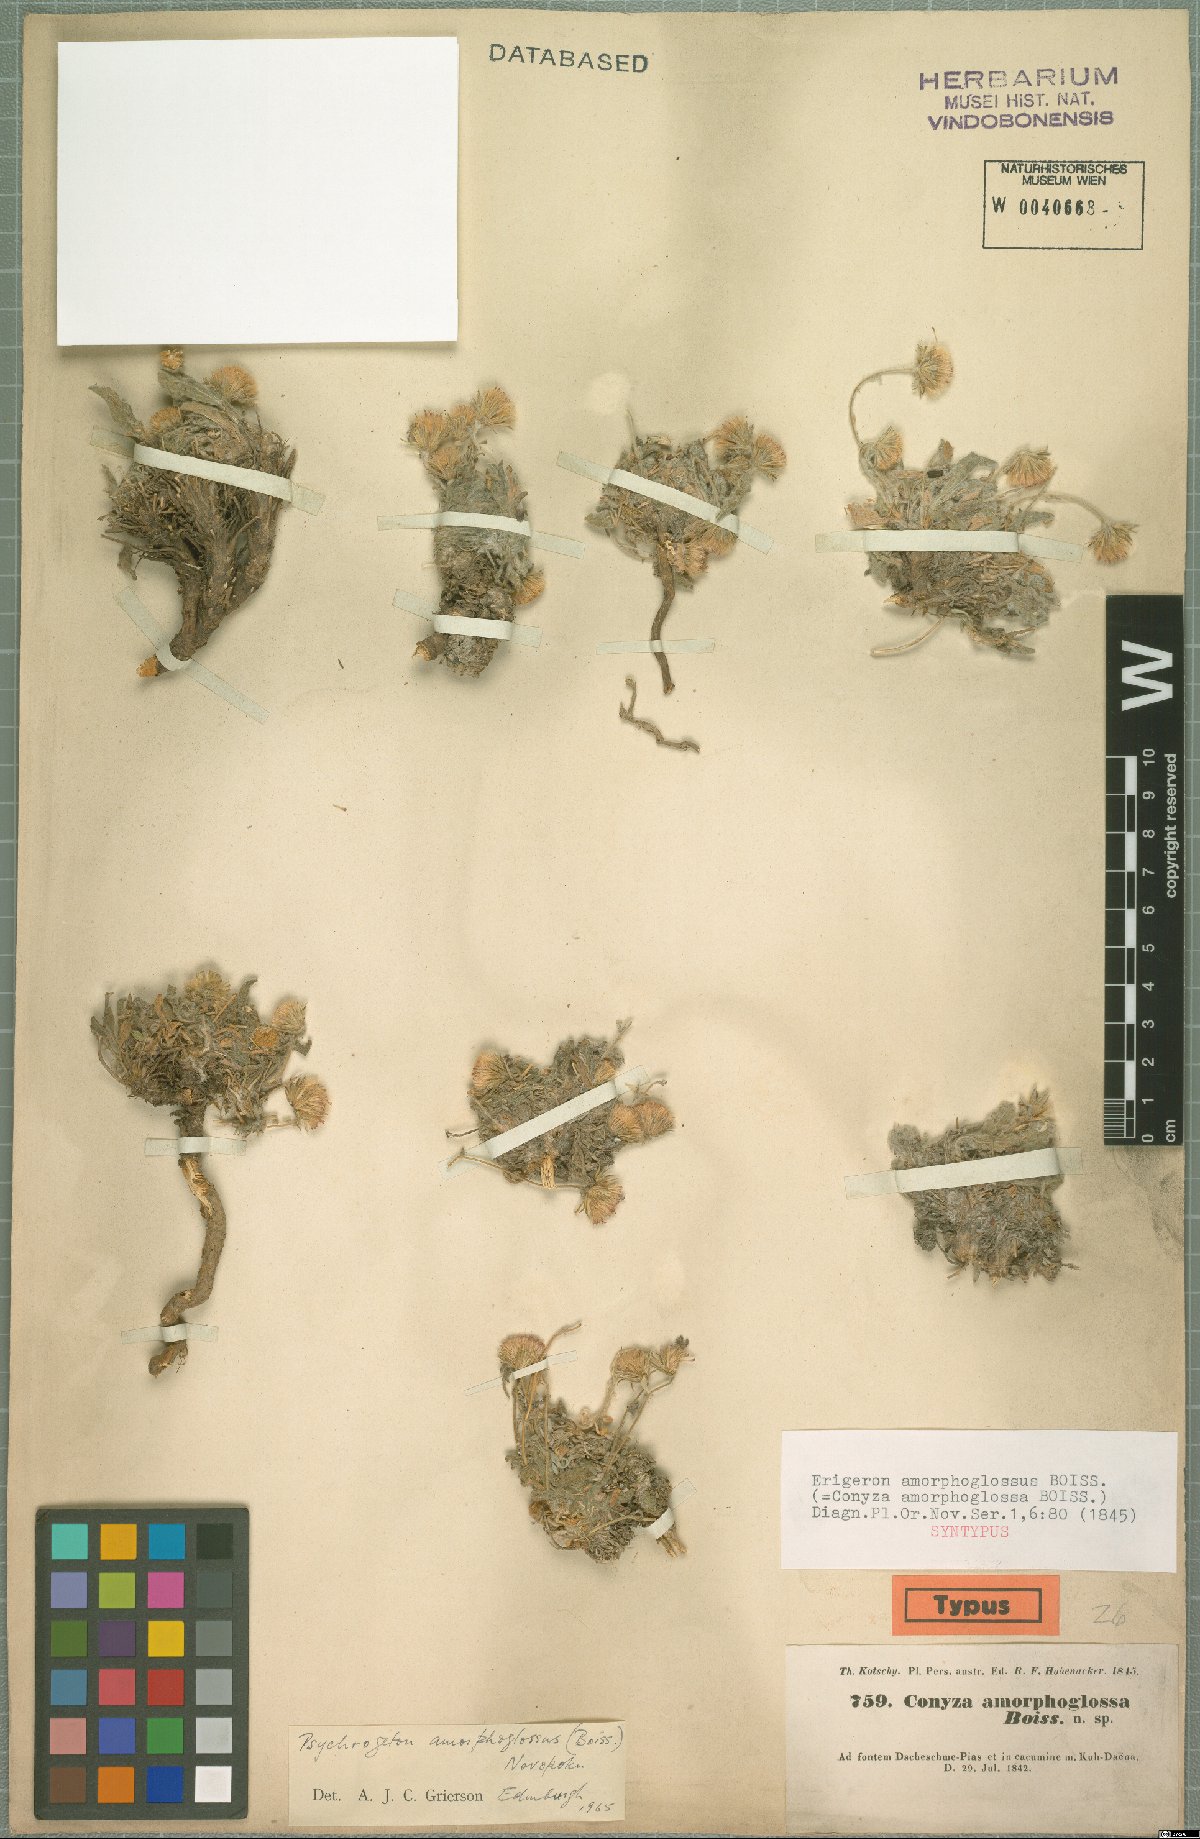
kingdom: Plantae
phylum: Tracheophyta
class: Magnoliopsida
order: Asterales
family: Asteraceae
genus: Psychrogeton
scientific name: Psychrogeton amorphoglossus
